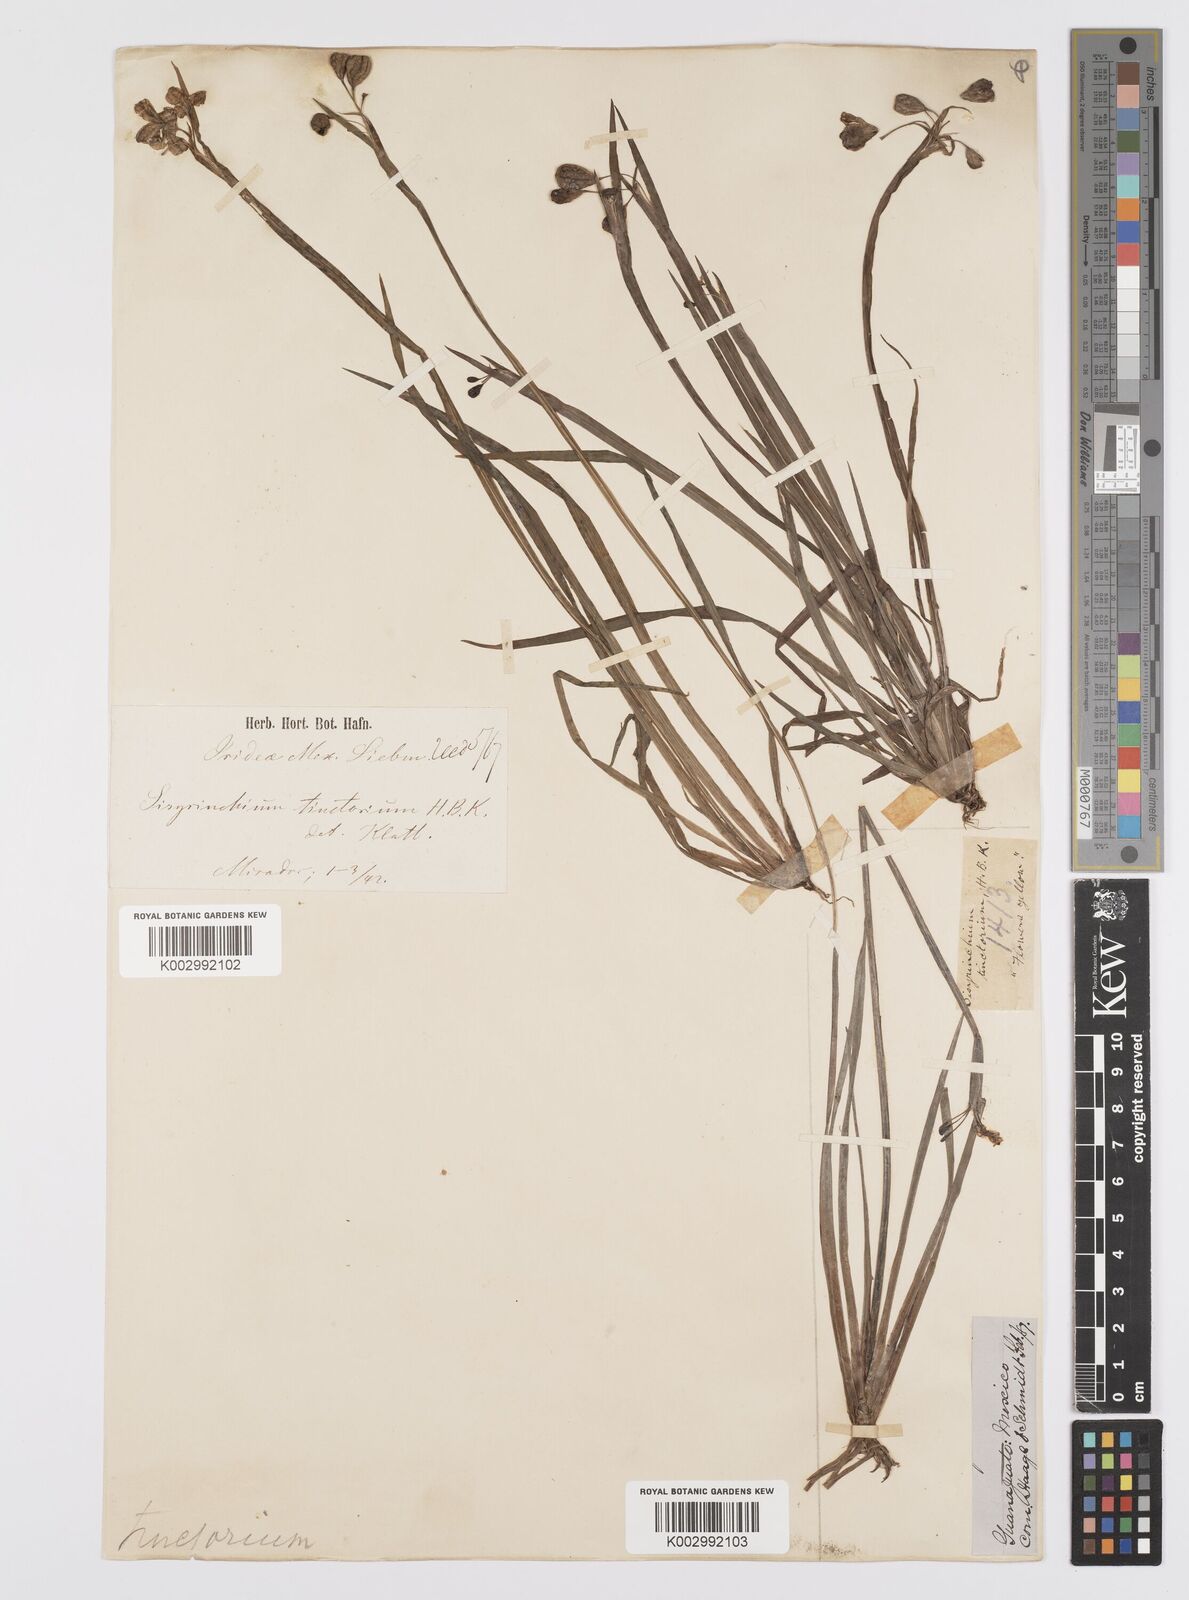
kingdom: Plantae
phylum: Tracheophyta
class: Liliopsida
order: Asparagales
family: Iridaceae
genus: Sisyrinchium
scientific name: Sisyrinchium tinctorium
